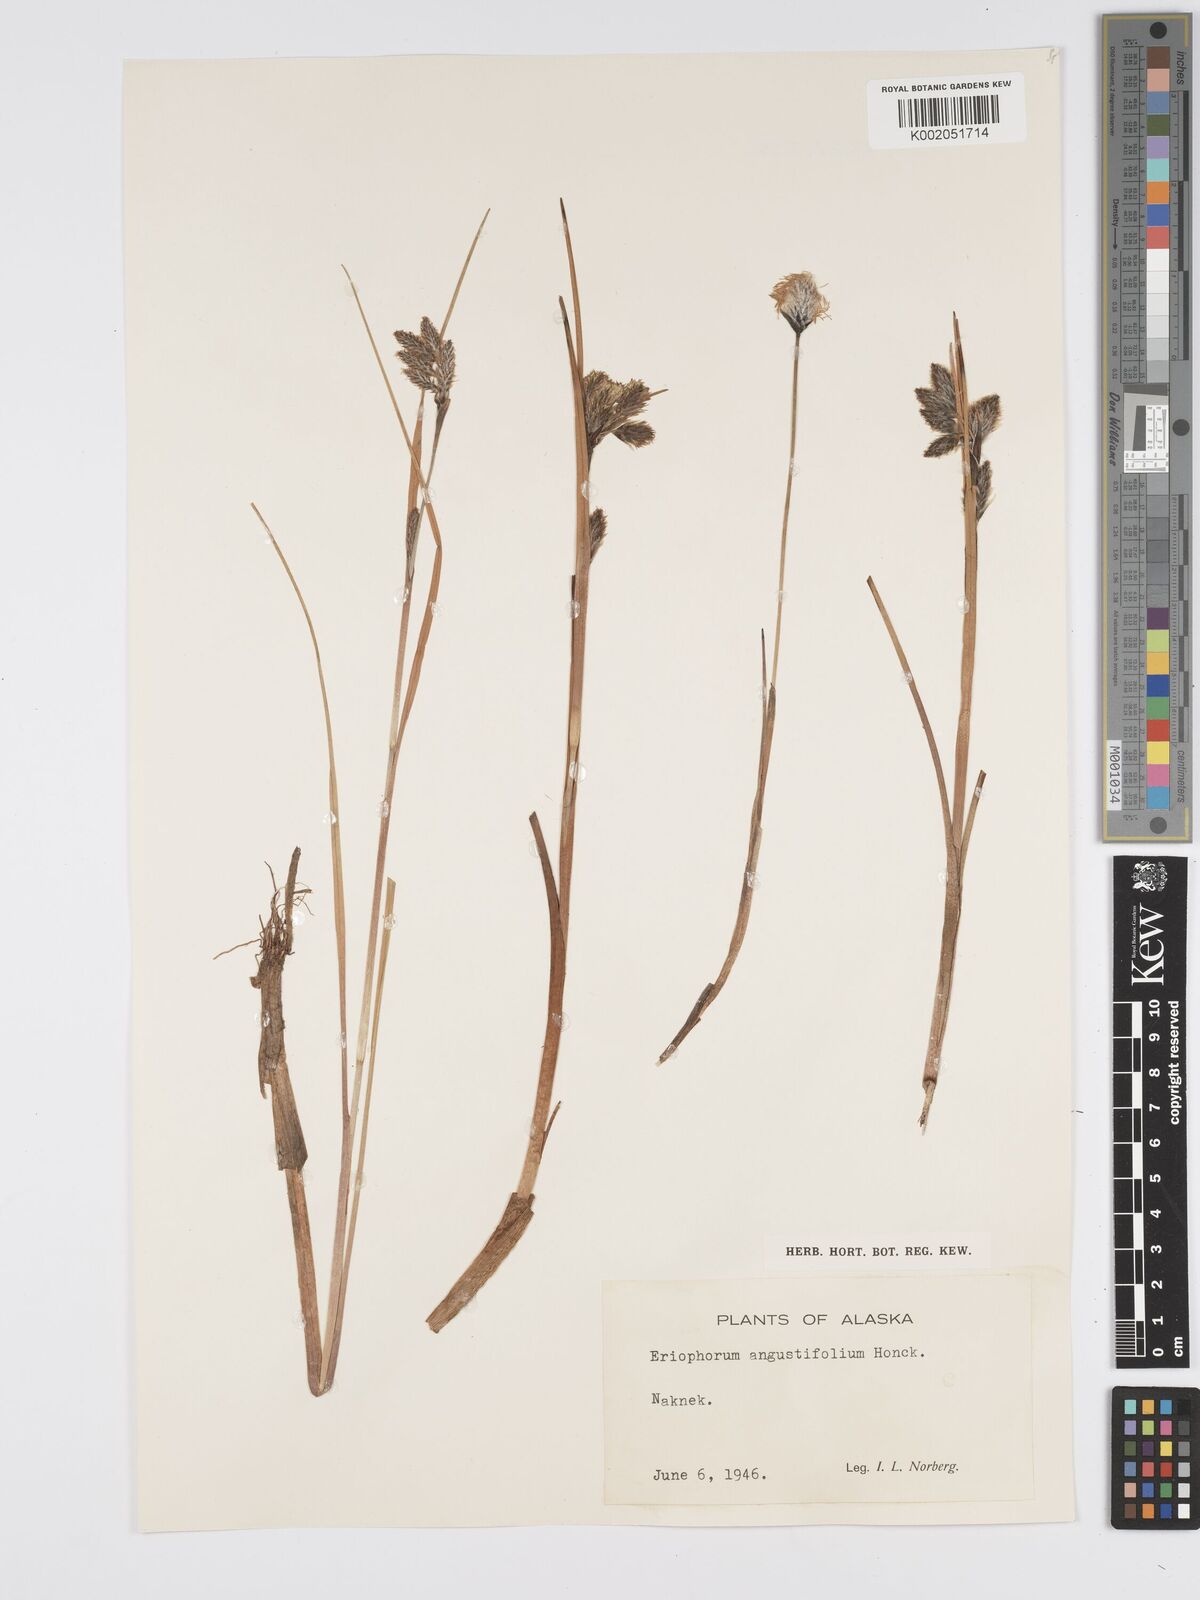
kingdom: Plantae
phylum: Tracheophyta
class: Liliopsida
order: Poales
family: Cyperaceae
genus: Eriophorum
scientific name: Eriophorum angustifolium
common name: Common cottongrass
